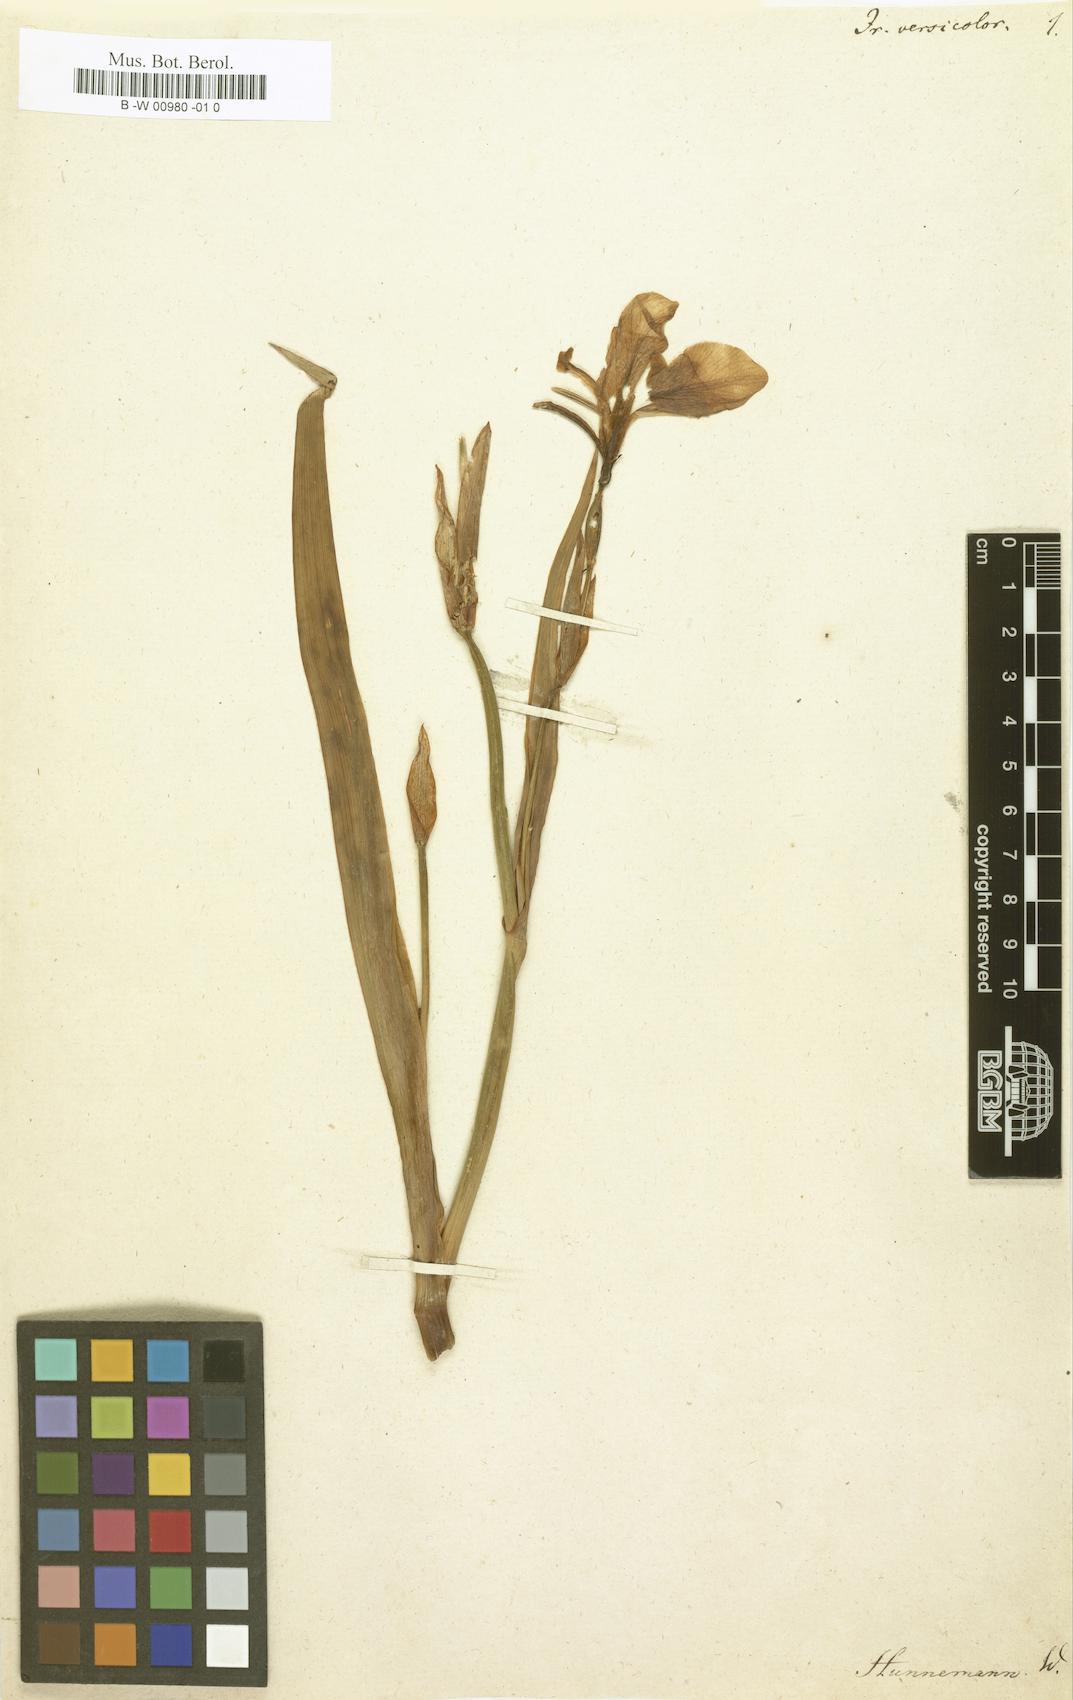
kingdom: Plantae
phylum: Tracheophyta
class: Liliopsida
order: Asparagales
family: Iridaceae
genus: Iris
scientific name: Iris versicolor
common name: Purple iris
